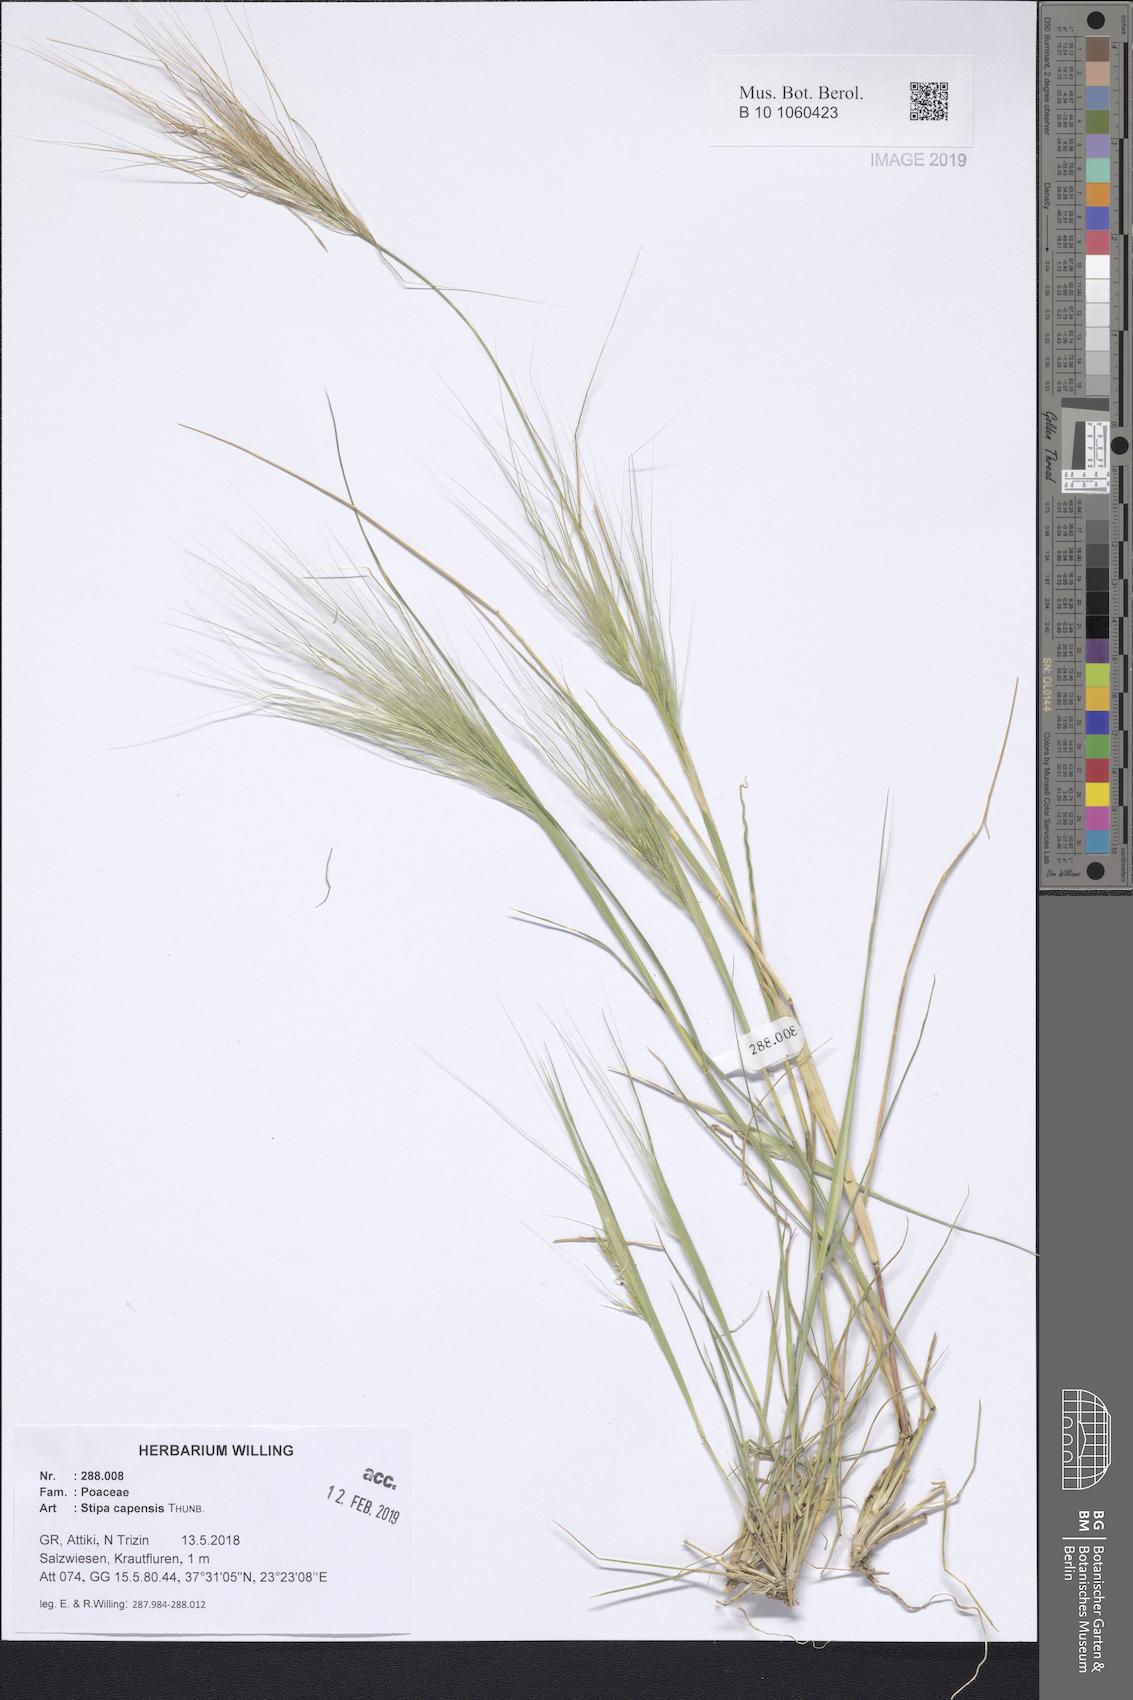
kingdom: Plantae
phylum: Tracheophyta
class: Liliopsida
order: Poales
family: Poaceae
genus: Stipellula
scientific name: Stipellula capensis
